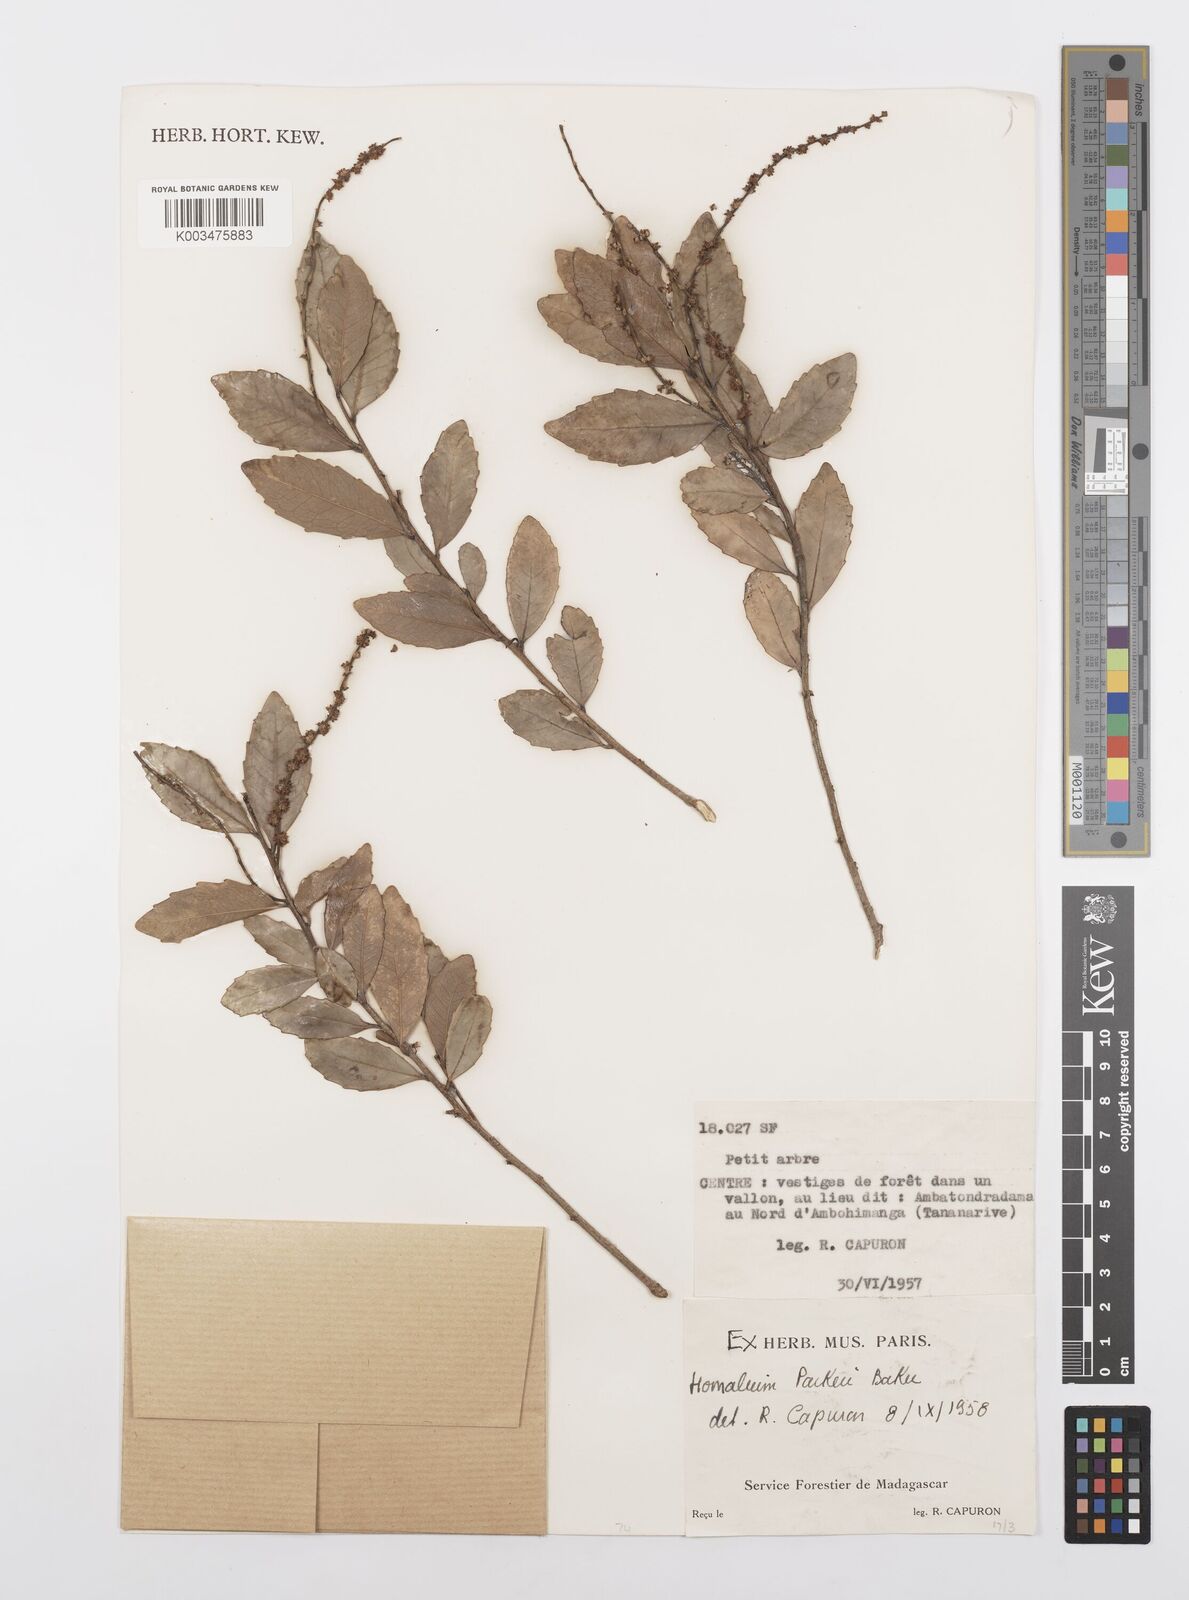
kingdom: Plantae
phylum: Tracheophyta
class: Magnoliopsida
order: Malpighiales
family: Salicaceae
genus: Homalium
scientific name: Homalium parkeri
